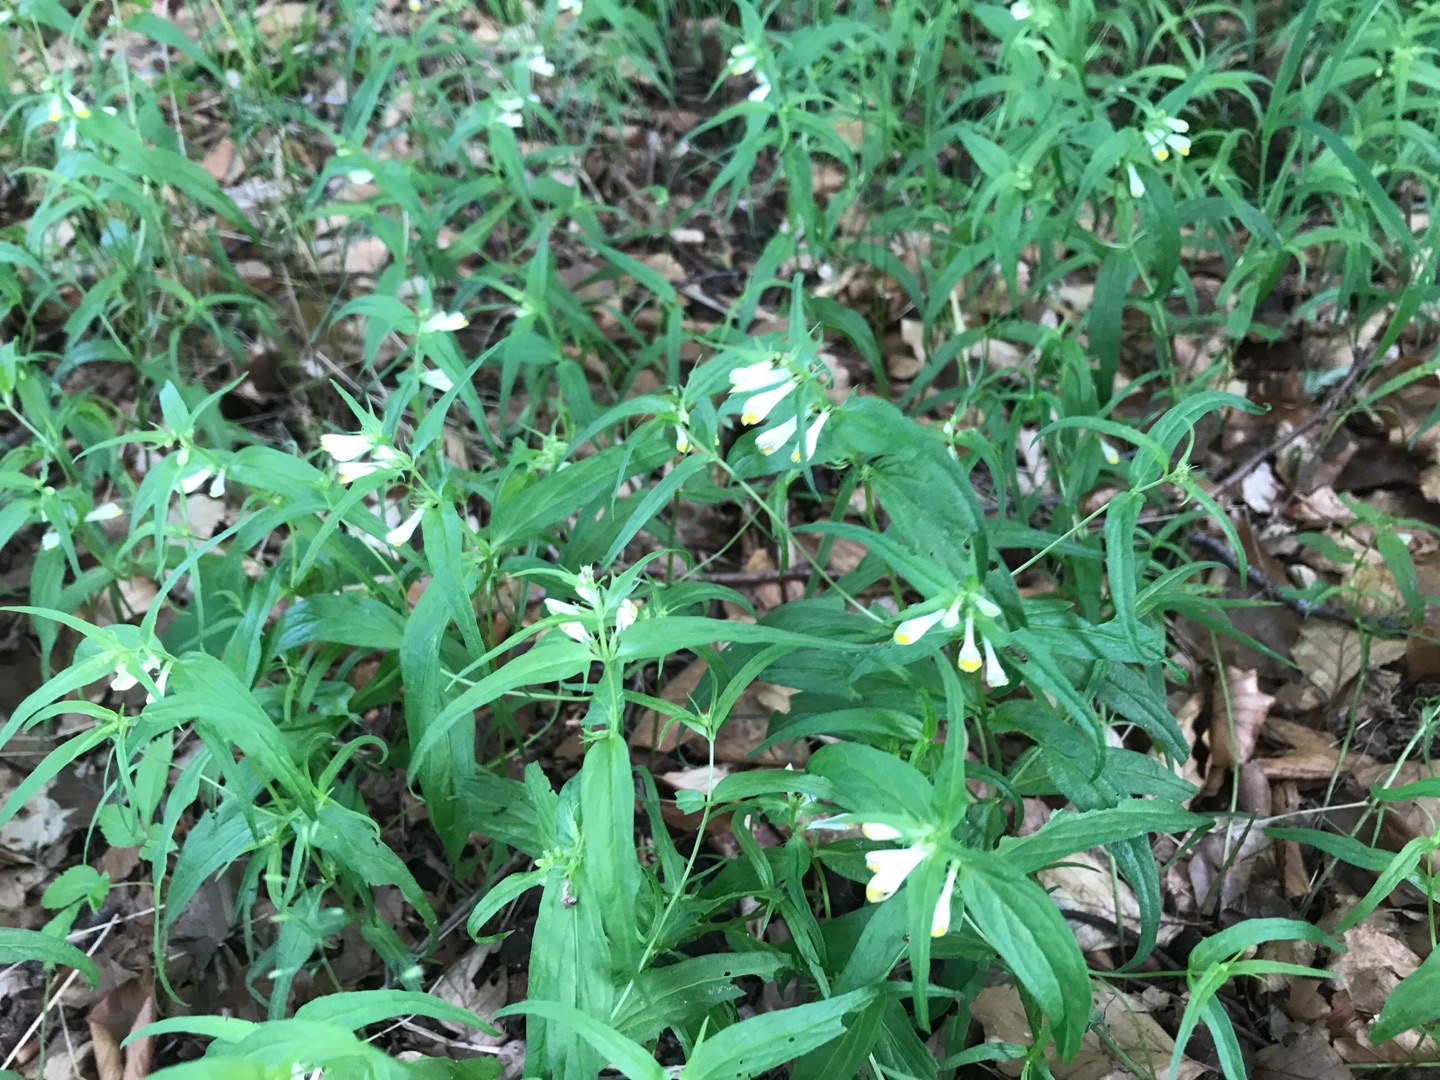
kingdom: Plantae
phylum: Tracheophyta
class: Magnoliopsida
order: Lamiales
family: Orobanchaceae
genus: Melampyrum
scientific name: Melampyrum pratense
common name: Almindelig kohvede
